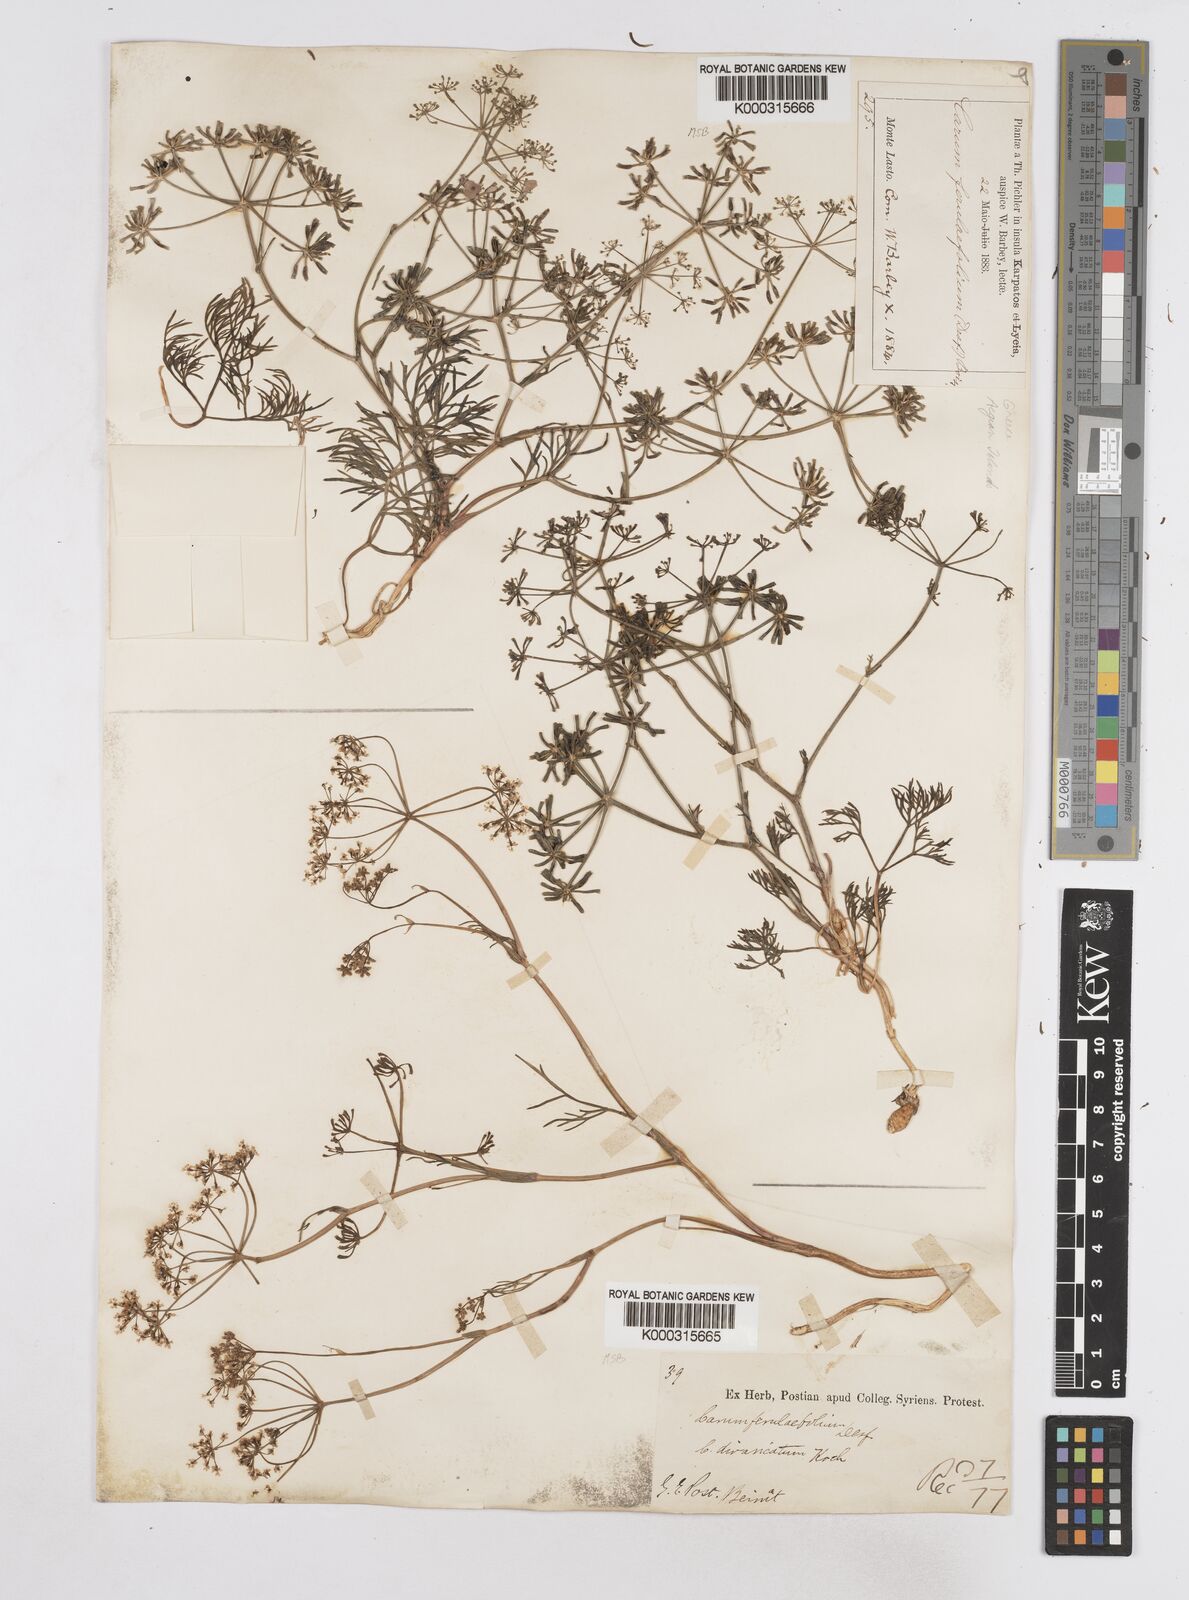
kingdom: Plantae
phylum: Tracheophyta
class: Magnoliopsida
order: Apiales
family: Apiaceae
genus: Bunium
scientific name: Bunium ferulaceum
